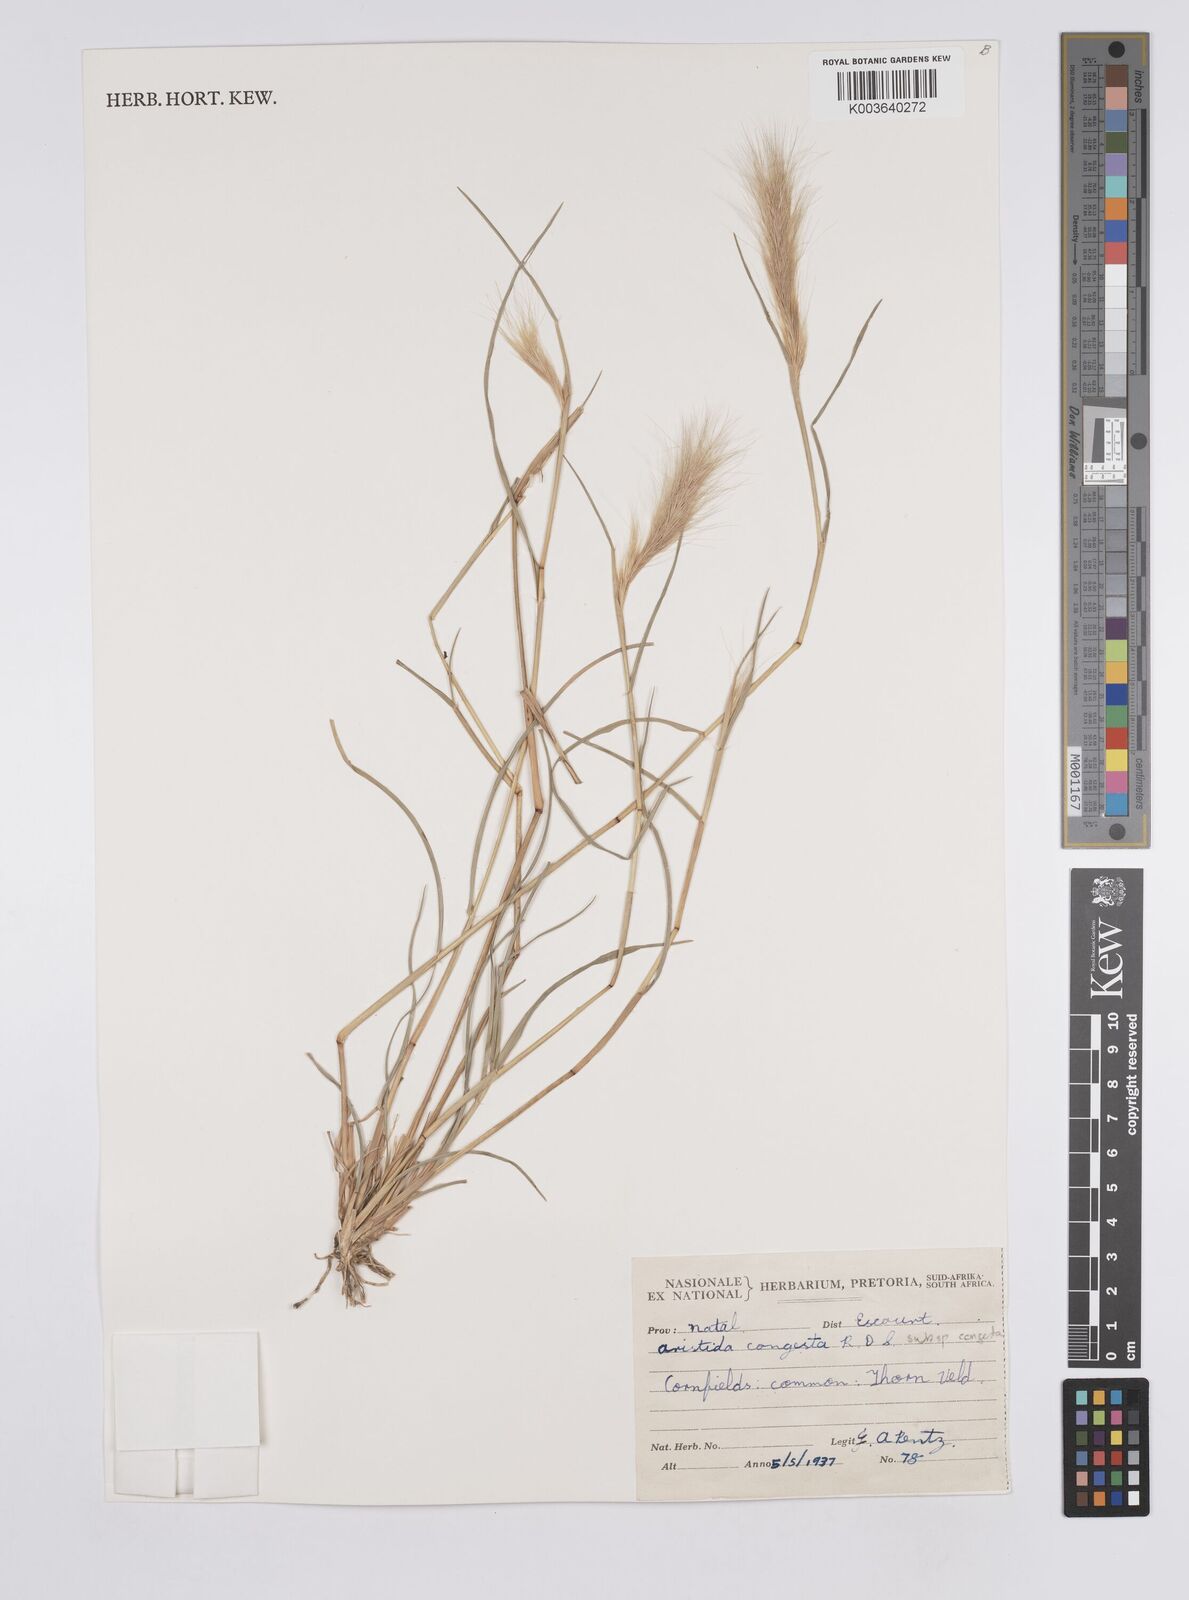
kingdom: Plantae
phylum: Tracheophyta
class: Liliopsida
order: Poales
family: Poaceae
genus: Aristida
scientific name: Aristida congesta
